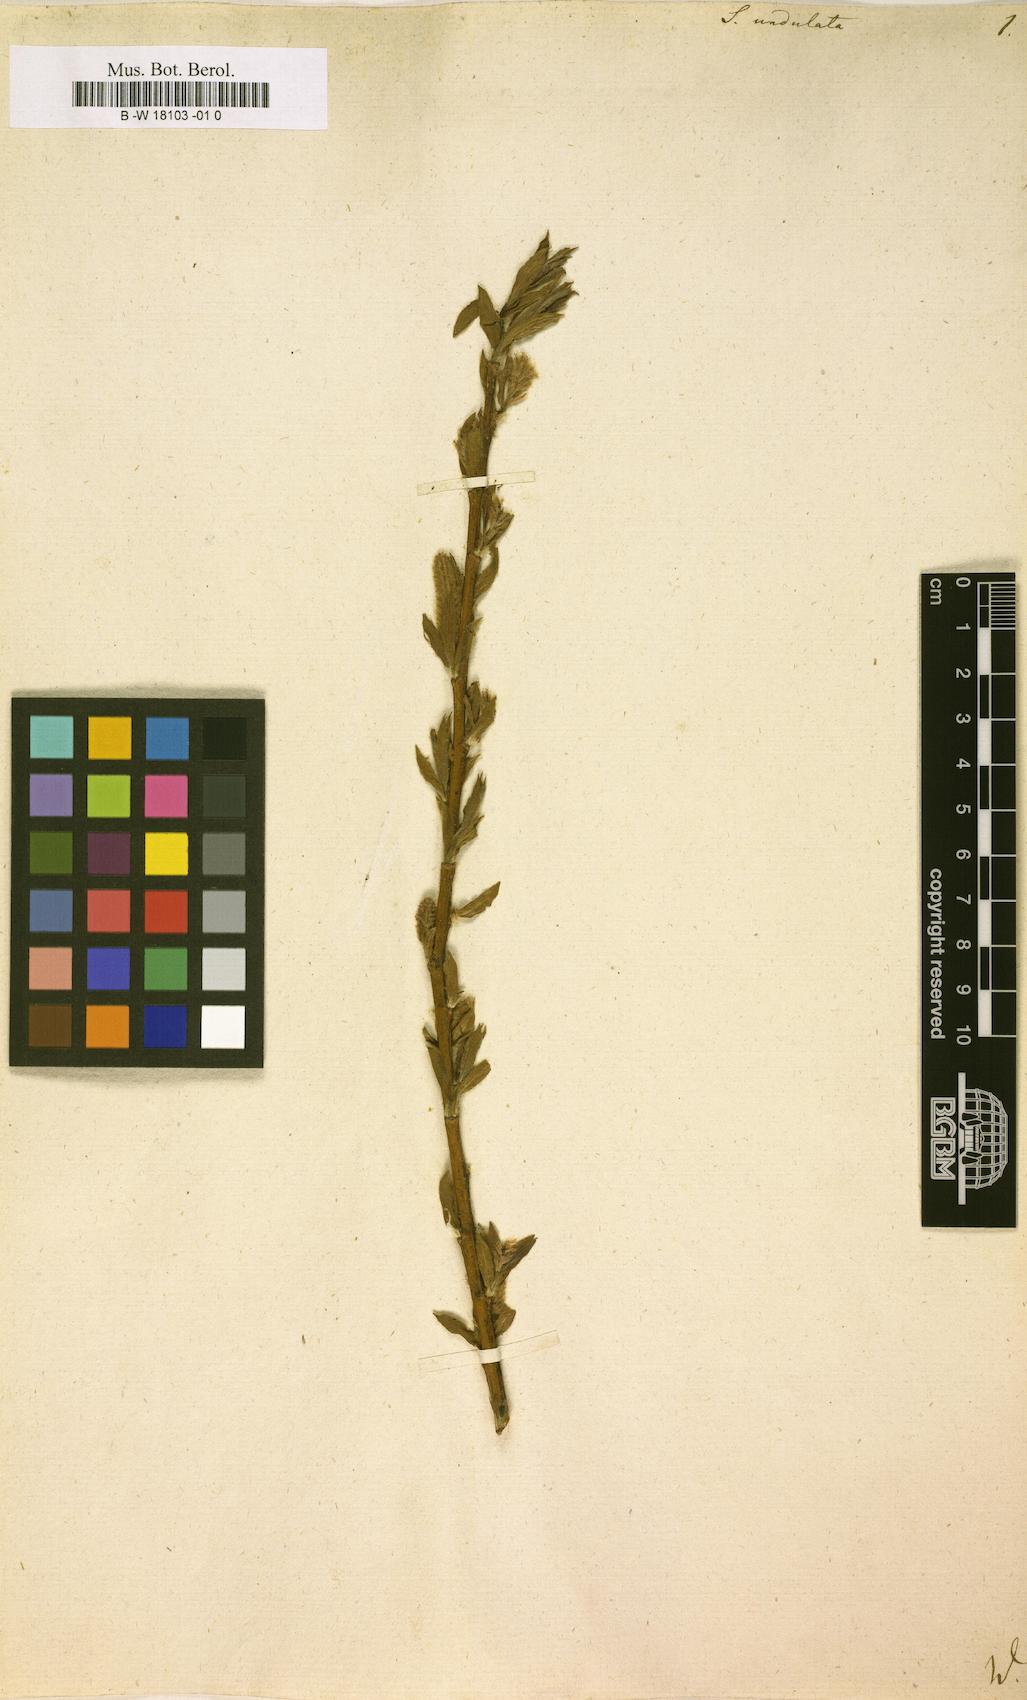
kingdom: Plantae
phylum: Tracheophyta
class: Magnoliopsida
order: Malpighiales
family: Salicaceae
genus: Salix
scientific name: Salix undulata
